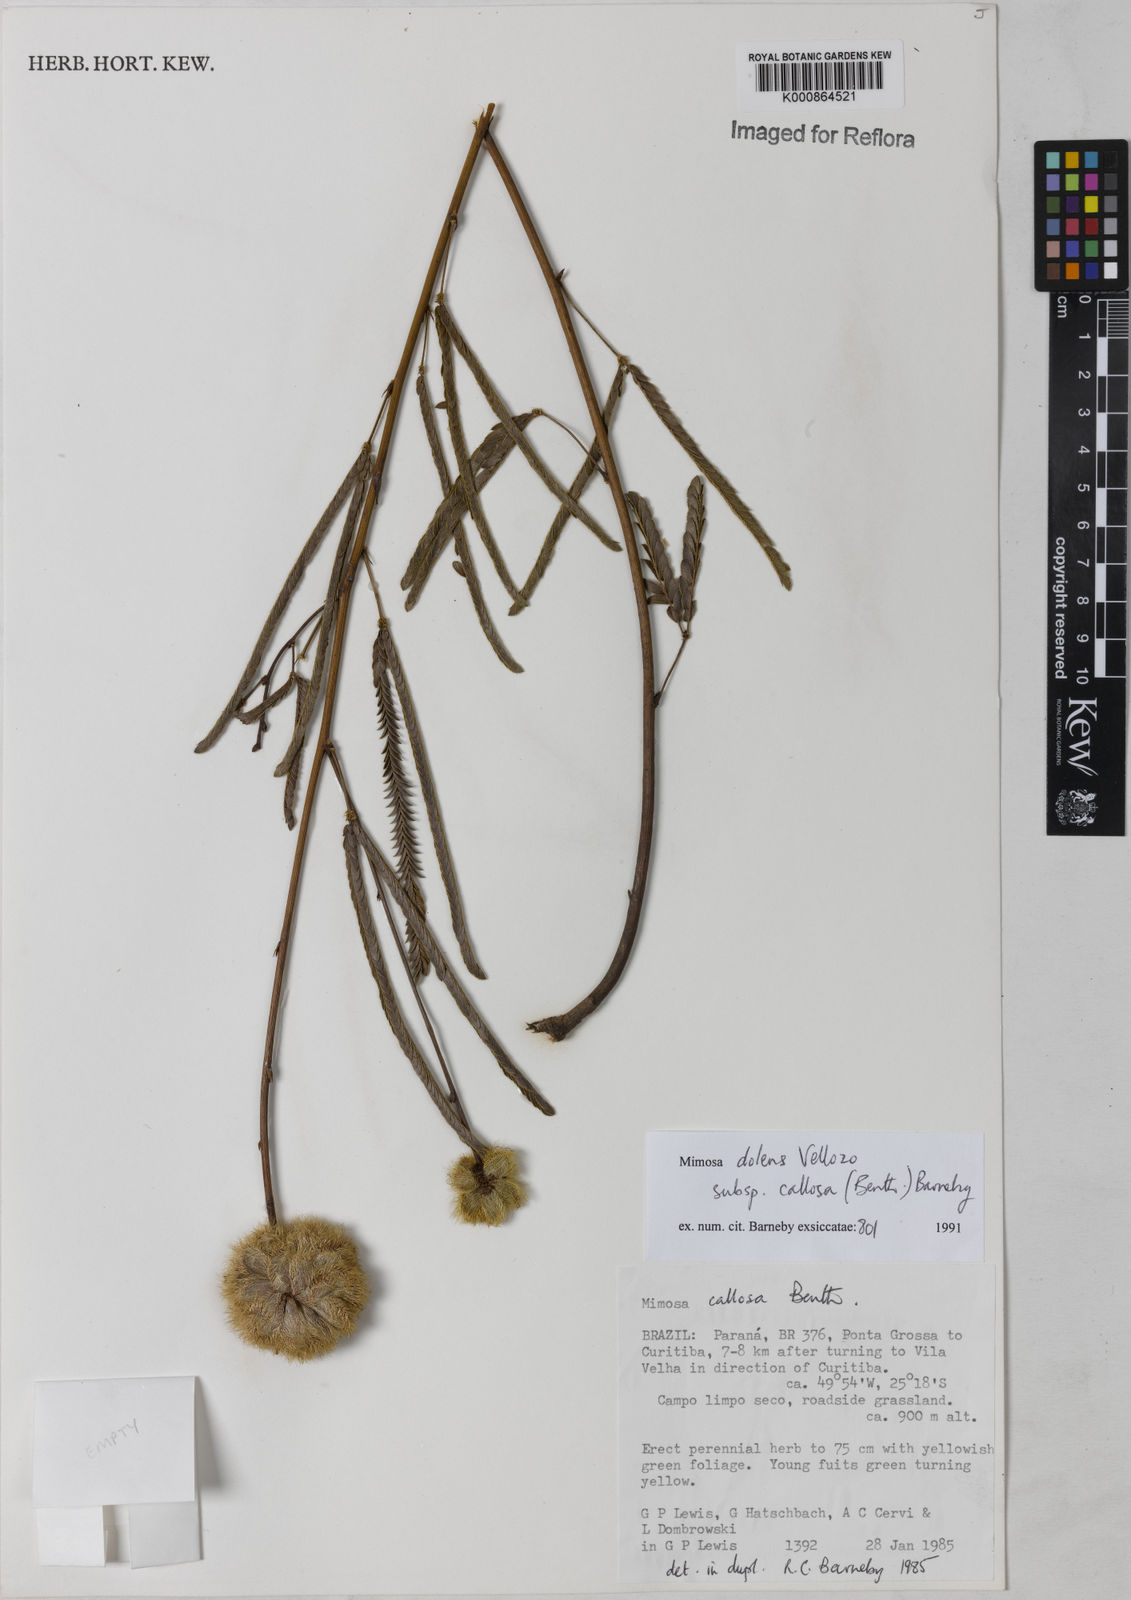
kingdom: Plantae
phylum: Tracheophyta
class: Magnoliopsida
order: Fabales
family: Fabaceae
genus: Mimosa
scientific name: Mimosa dolens
